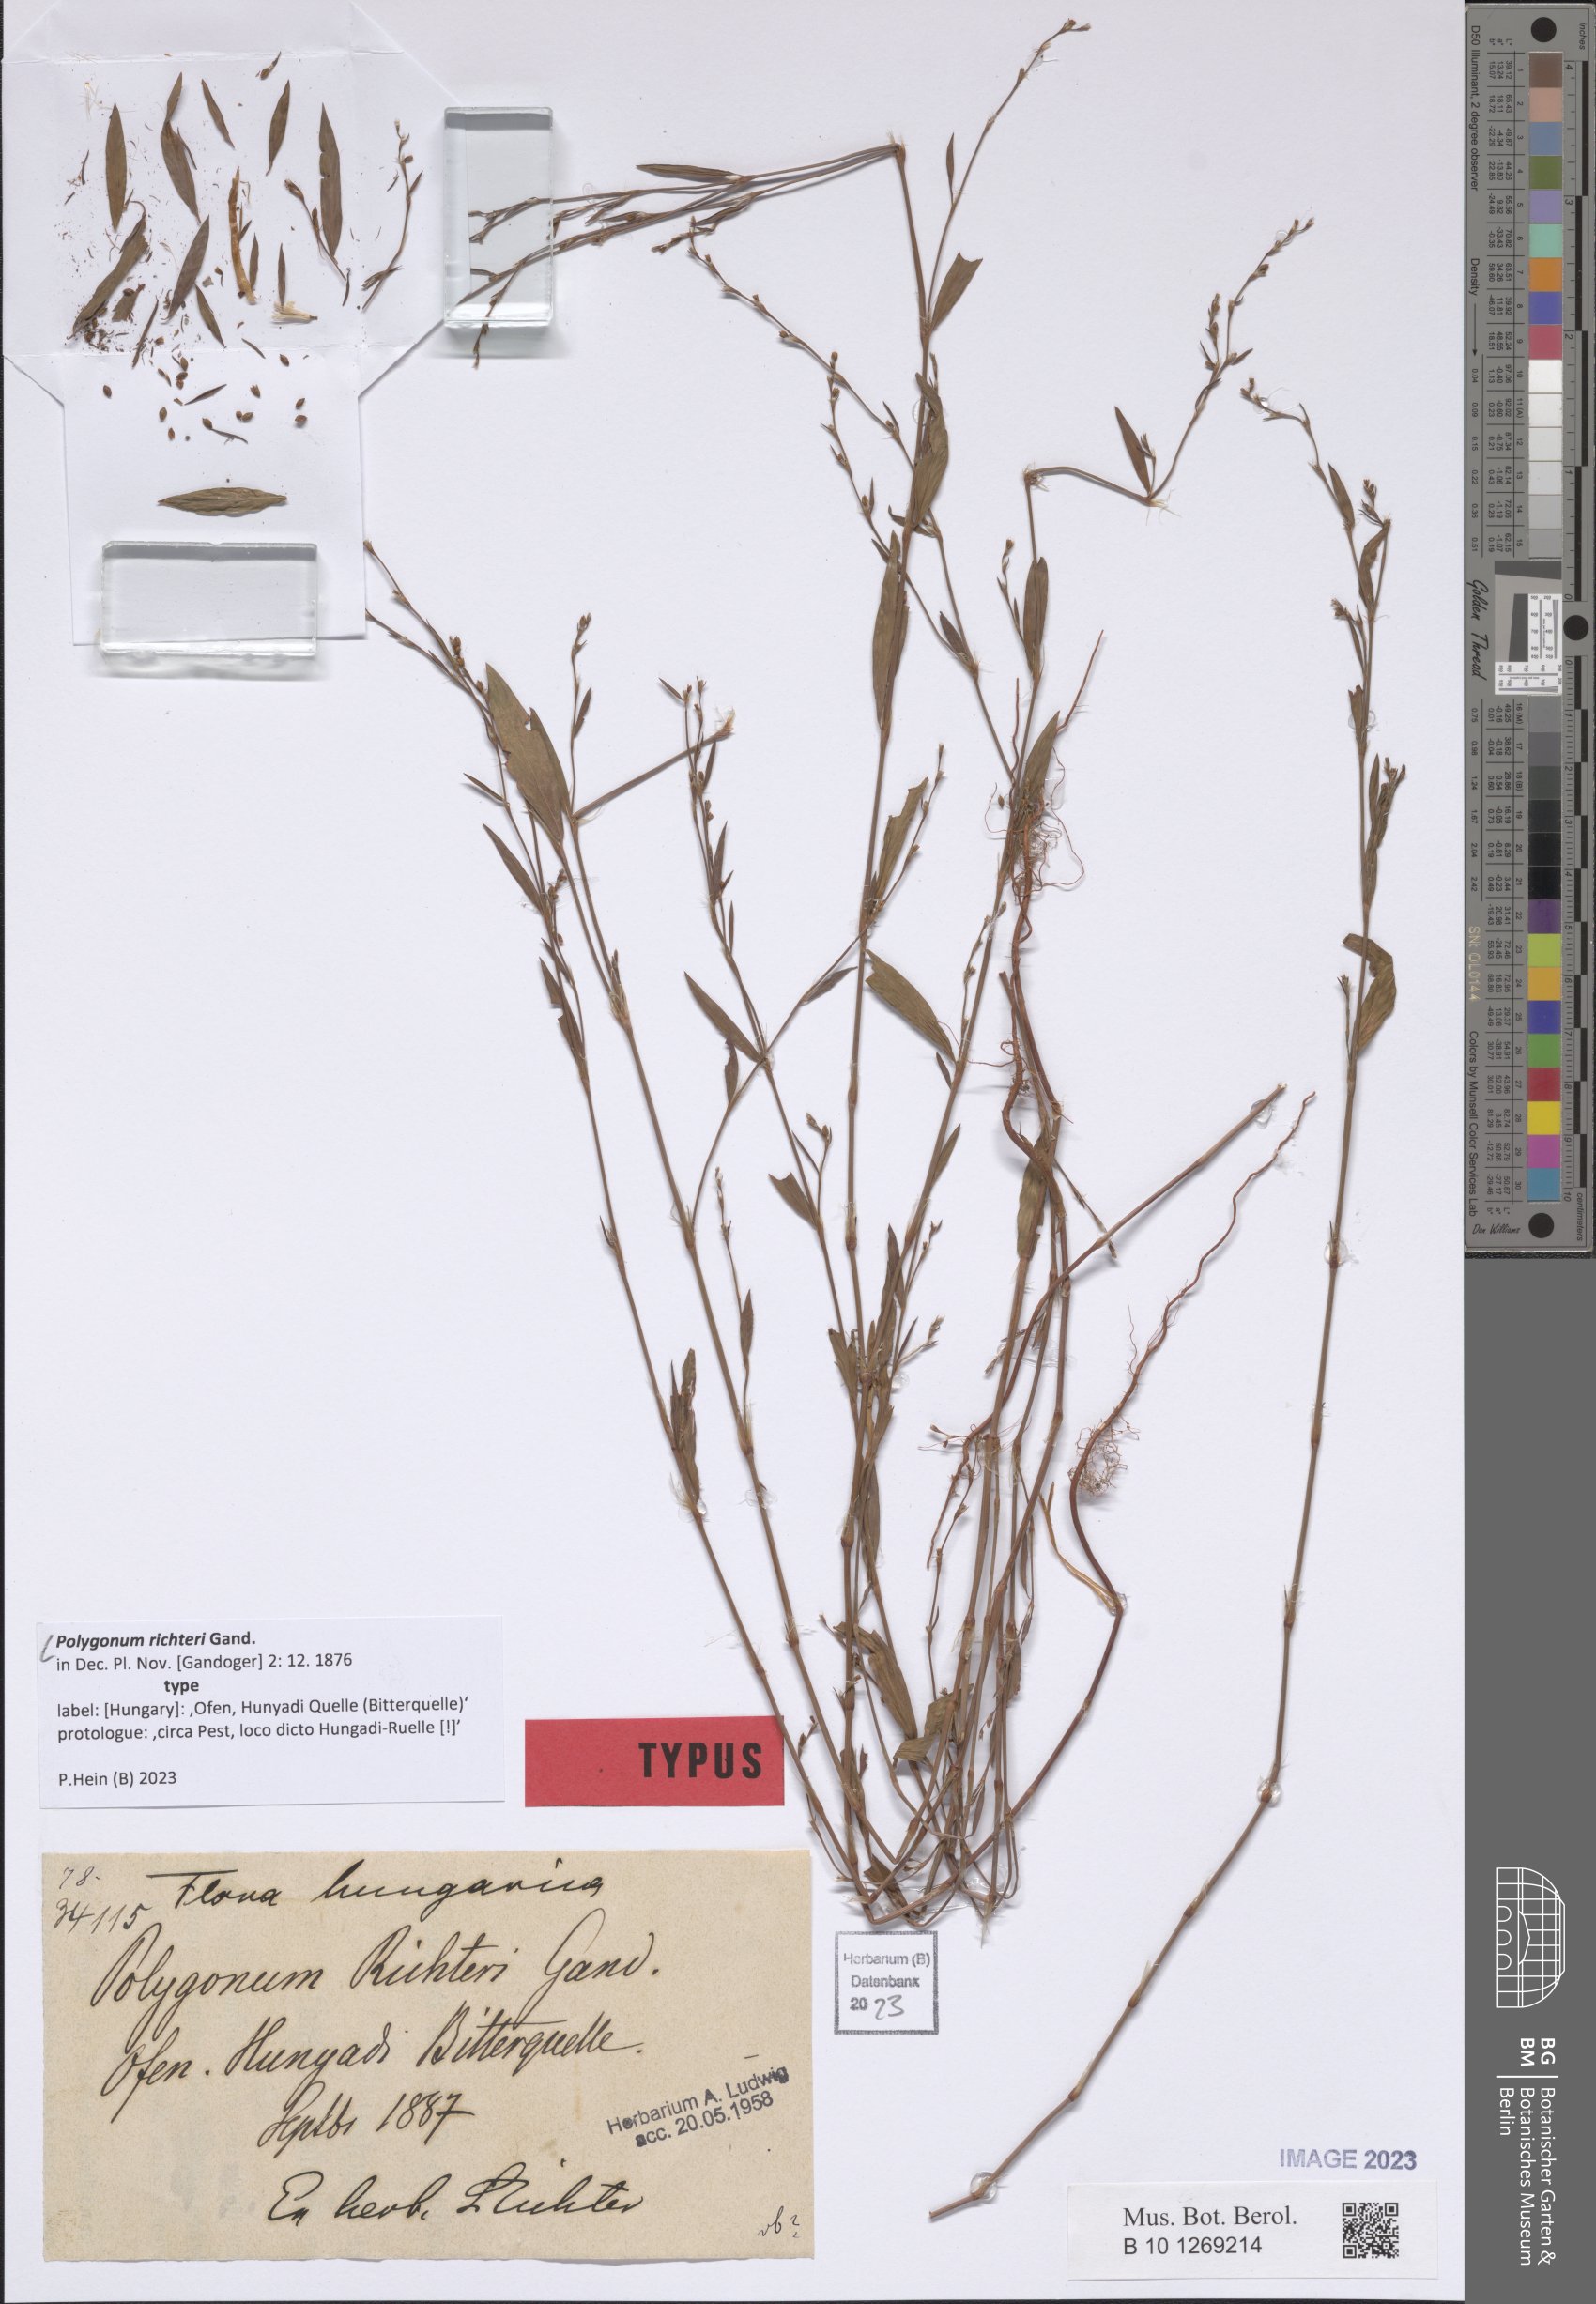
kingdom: Plantae
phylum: Tracheophyta
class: Magnoliopsida
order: Caryophyllales
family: Polygonaceae
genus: Polygonum
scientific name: Polygonum richteri
